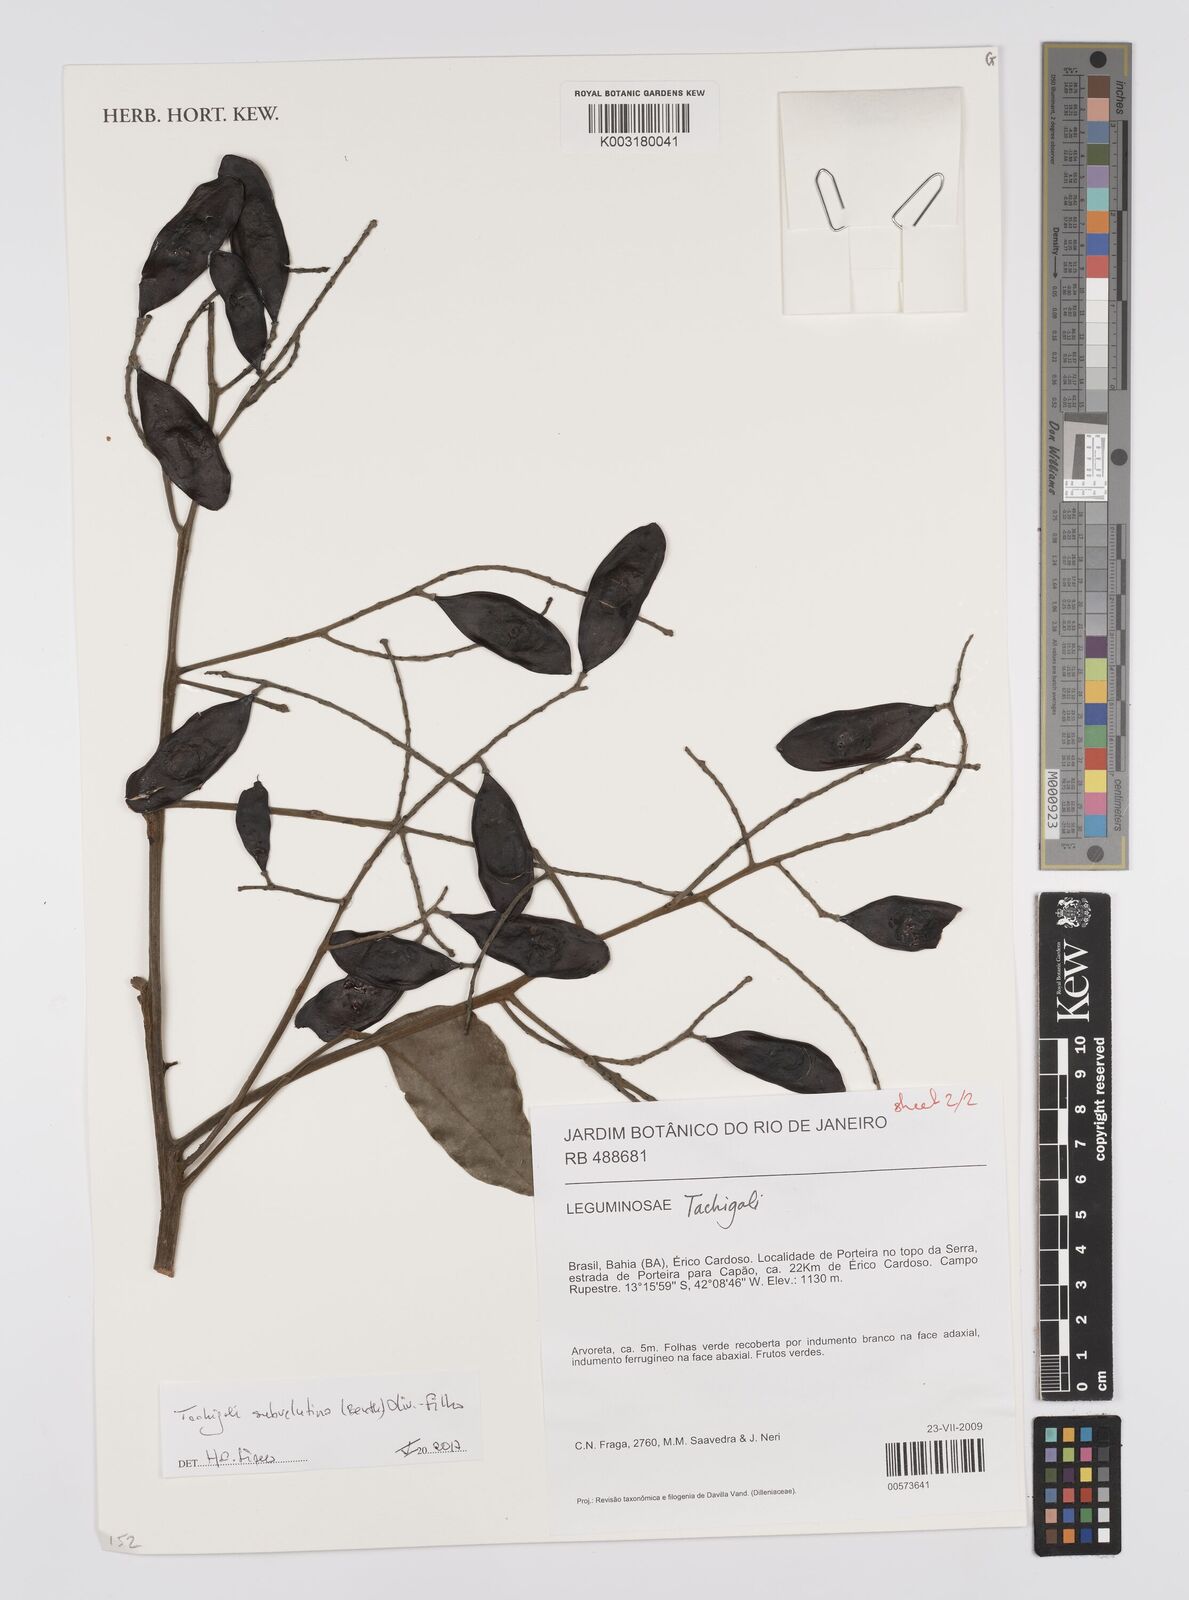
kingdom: Plantae
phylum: Tracheophyta
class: Magnoliopsida
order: Fabales
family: Fabaceae
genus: Tachigali
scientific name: Tachigali subvelutina
